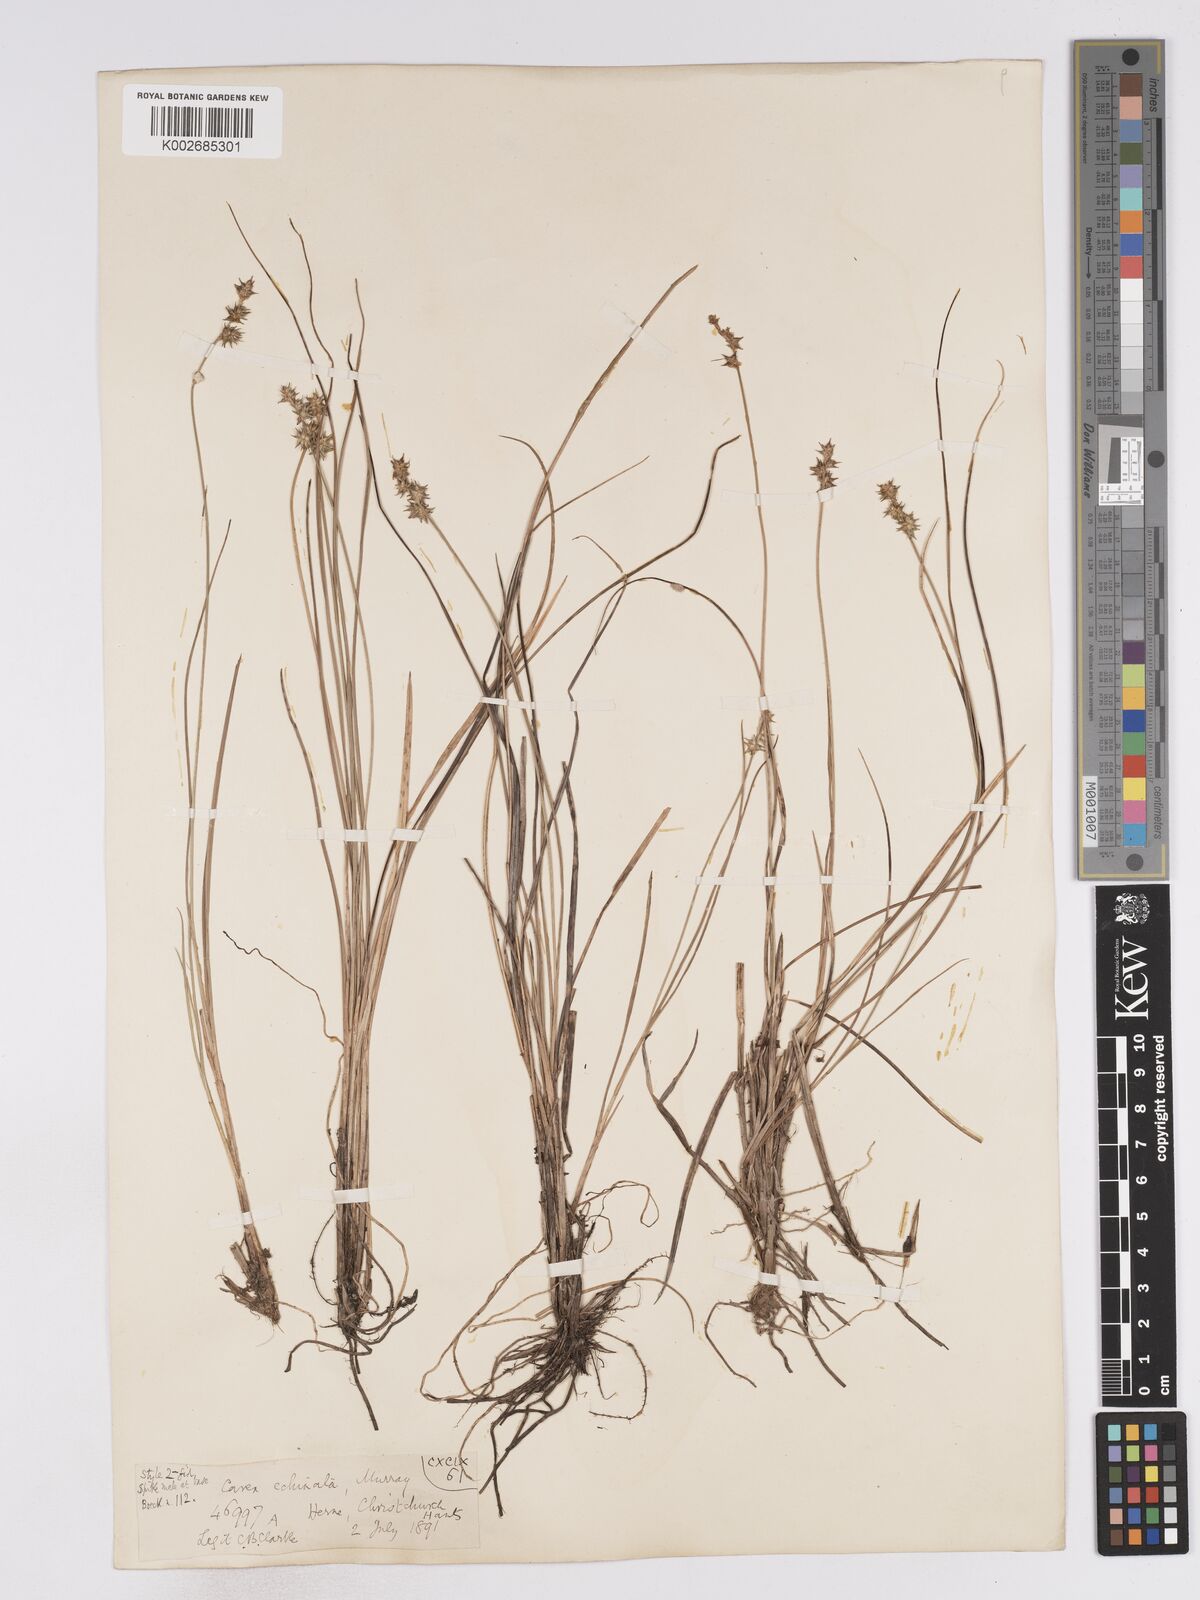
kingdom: Plantae
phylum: Tracheophyta
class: Liliopsida
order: Poales
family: Cyperaceae
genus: Carex
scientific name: Carex echinata
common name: Star sedge
